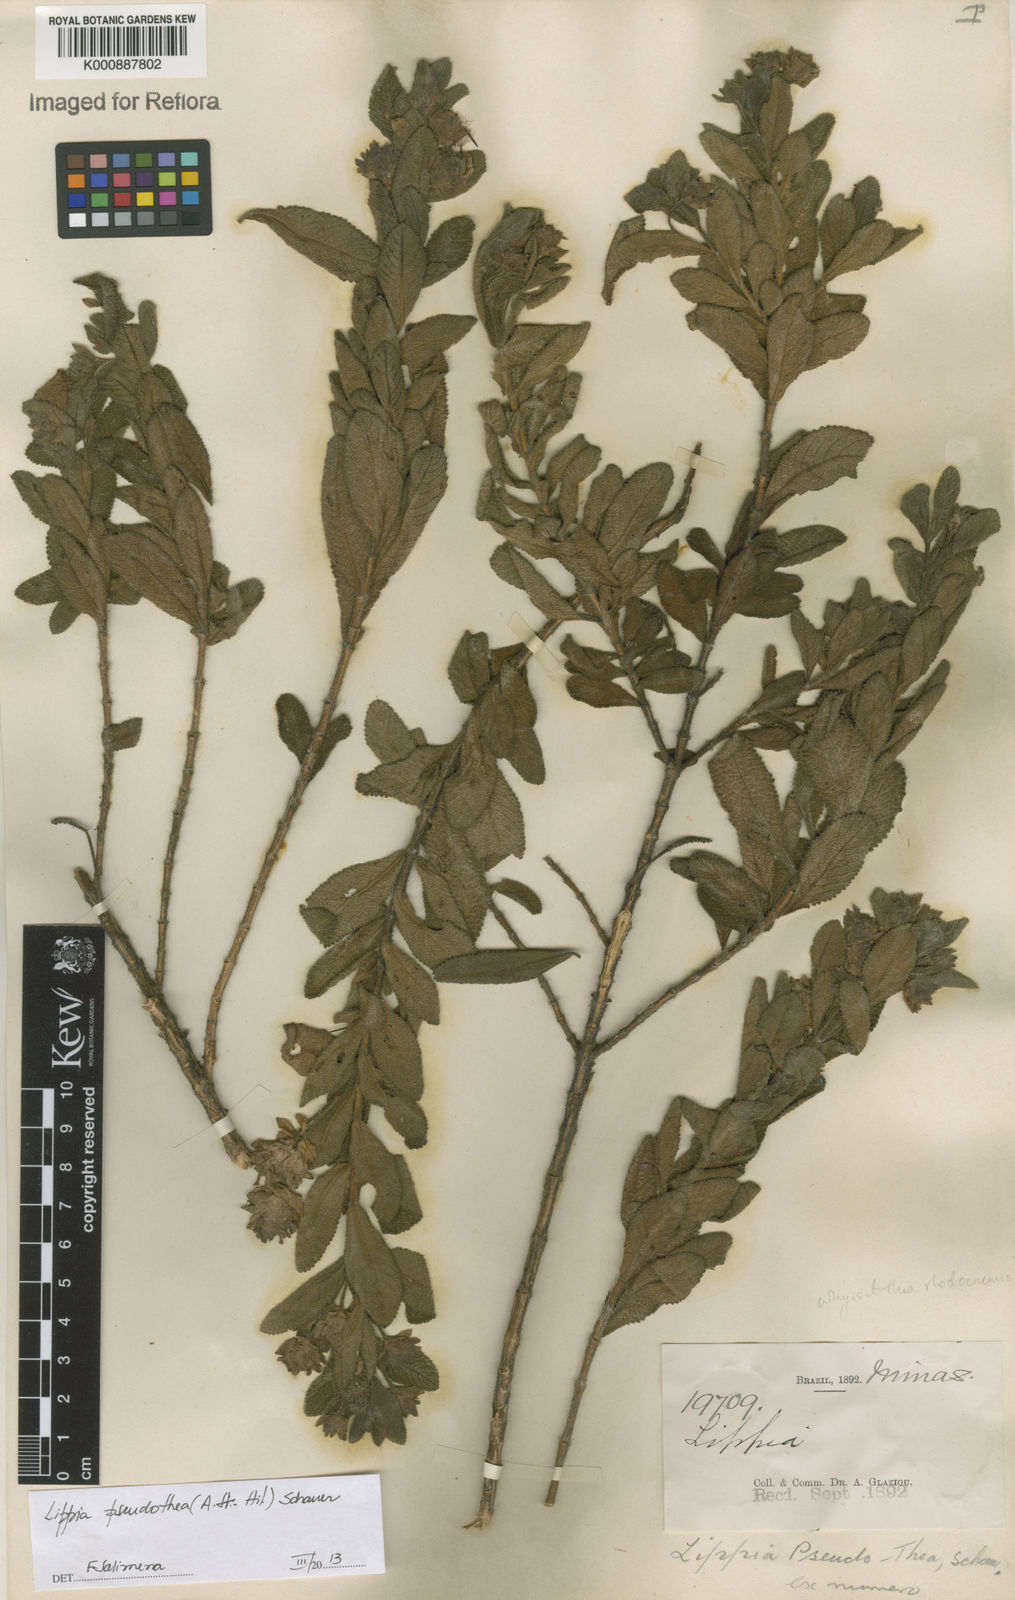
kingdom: Plantae
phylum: Tracheophyta
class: Magnoliopsida
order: Lamiales
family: Verbenaceae
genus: Lippia
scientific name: Lippia
